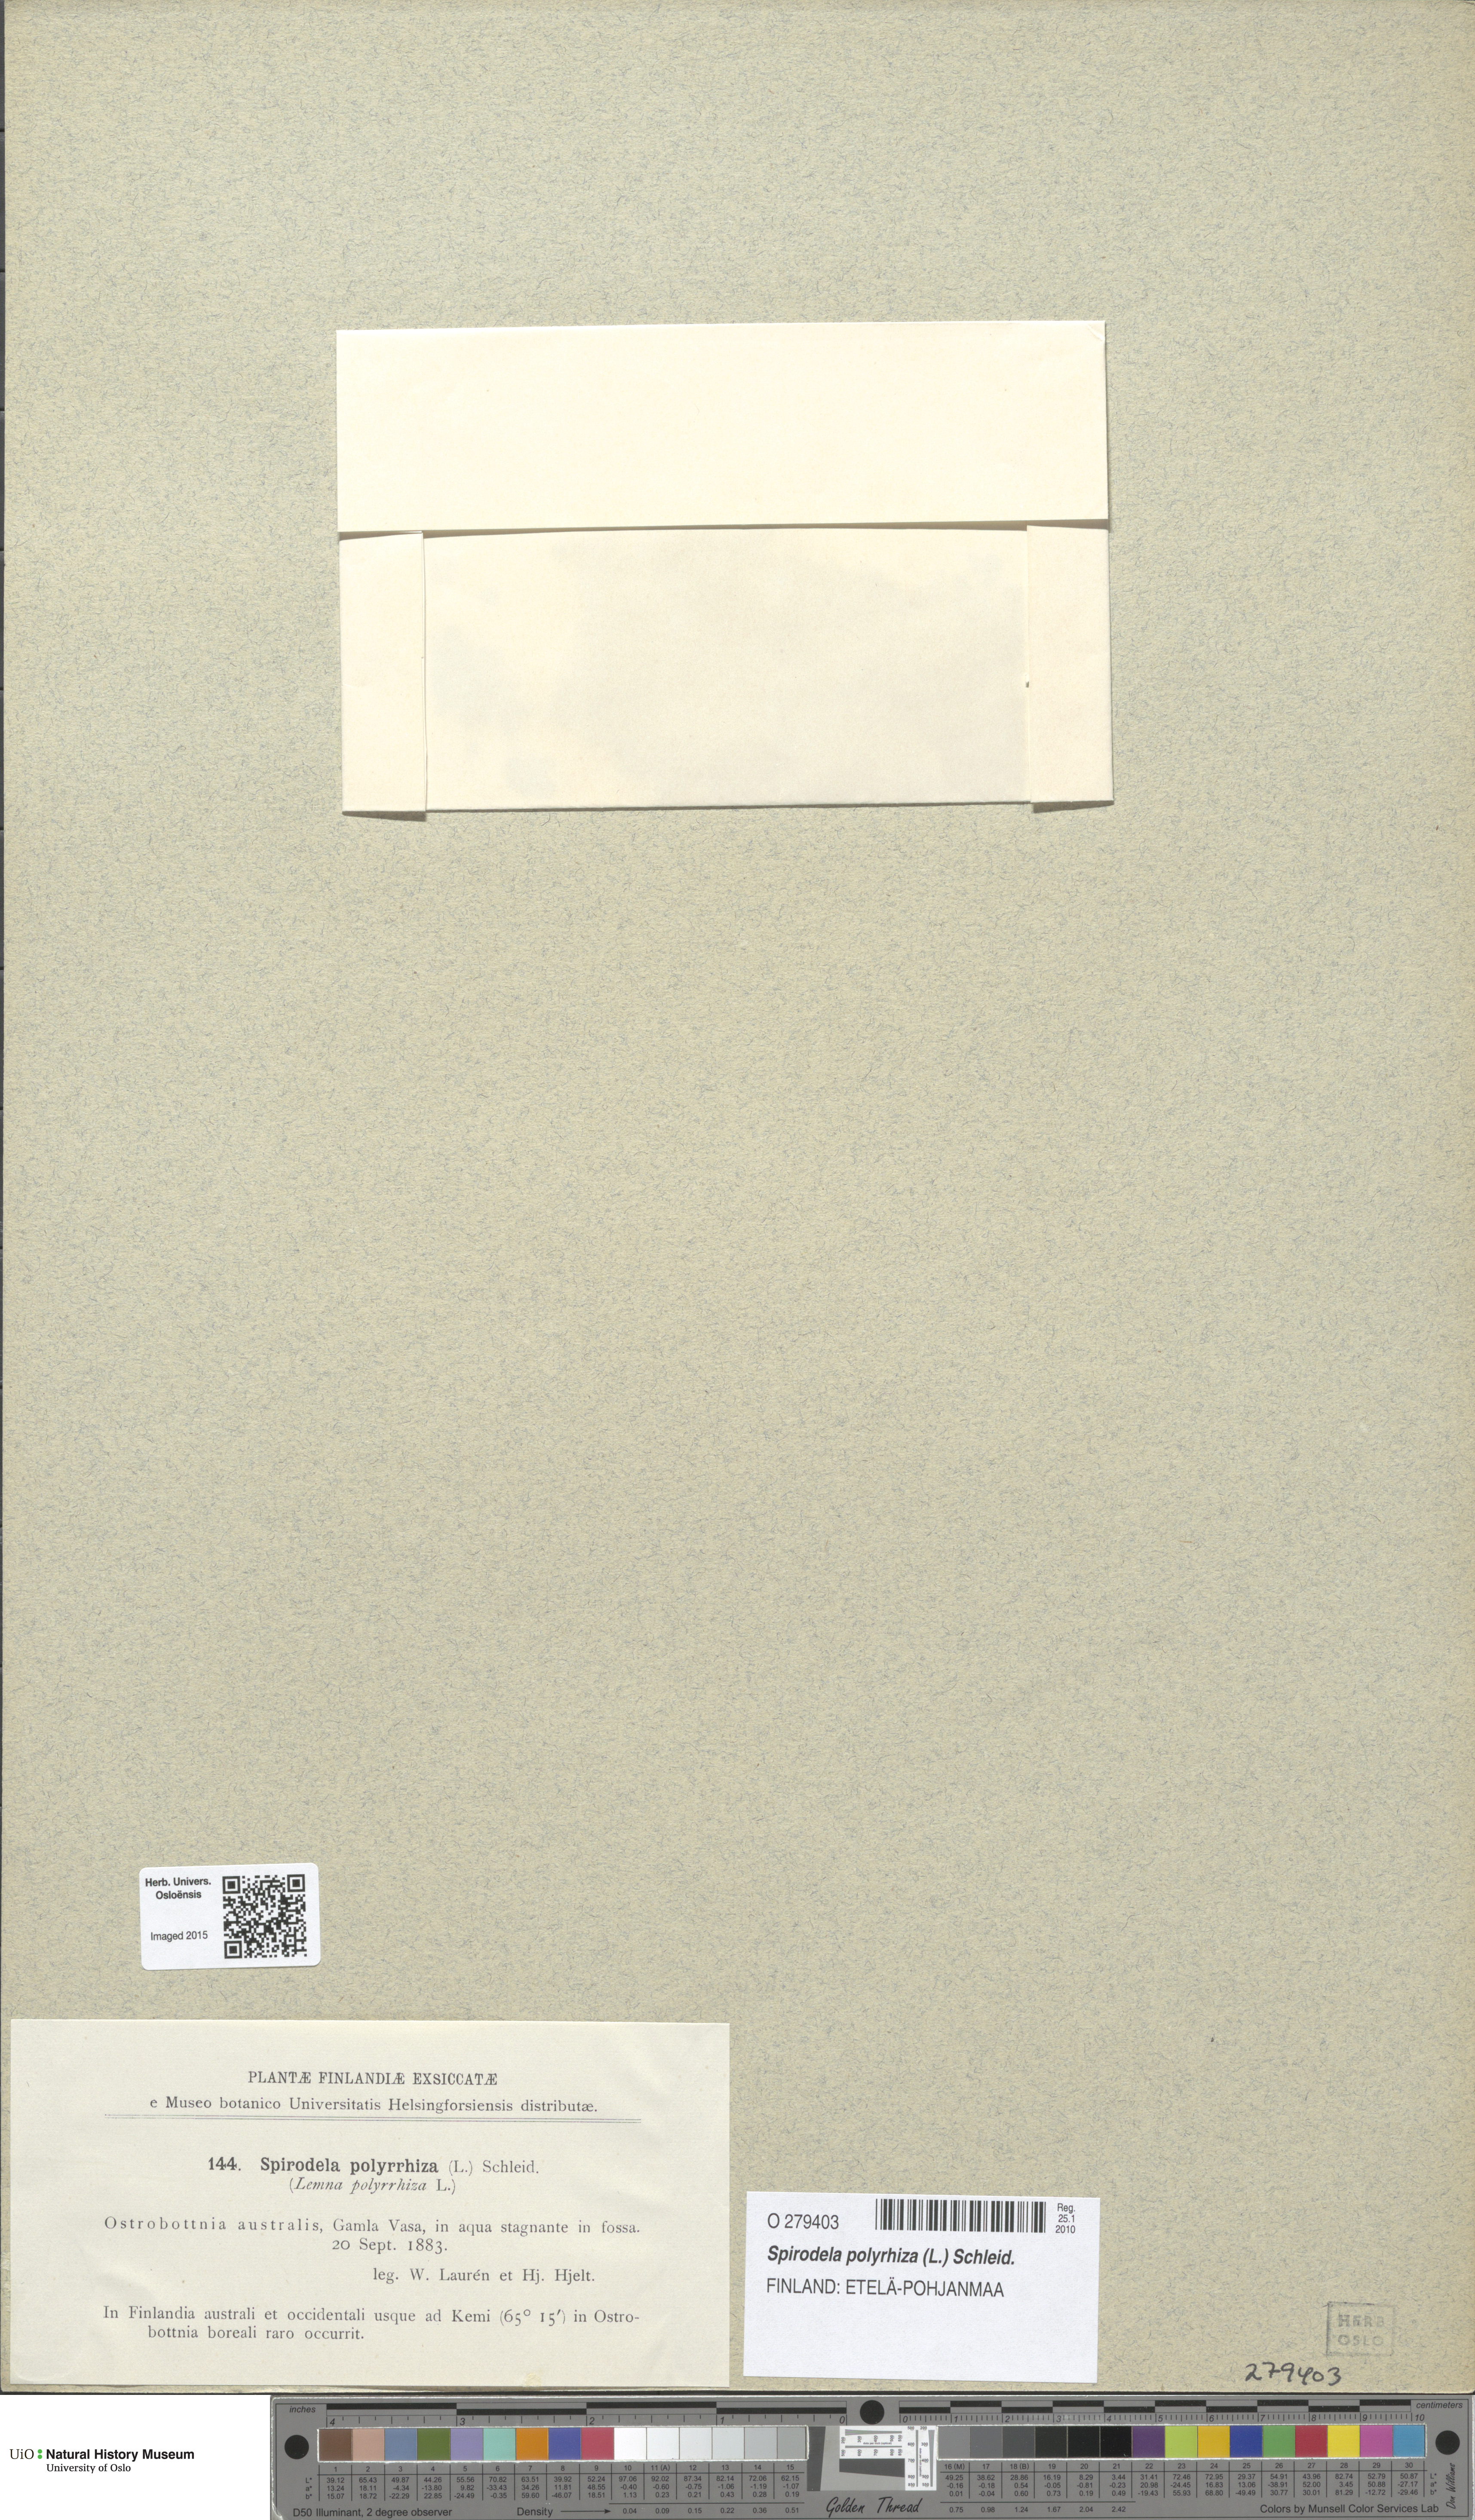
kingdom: Plantae
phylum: Tracheophyta
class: Liliopsida
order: Alismatales
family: Araceae
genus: Spirodela
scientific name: Spirodela polyrhiza
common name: Great duckweed
